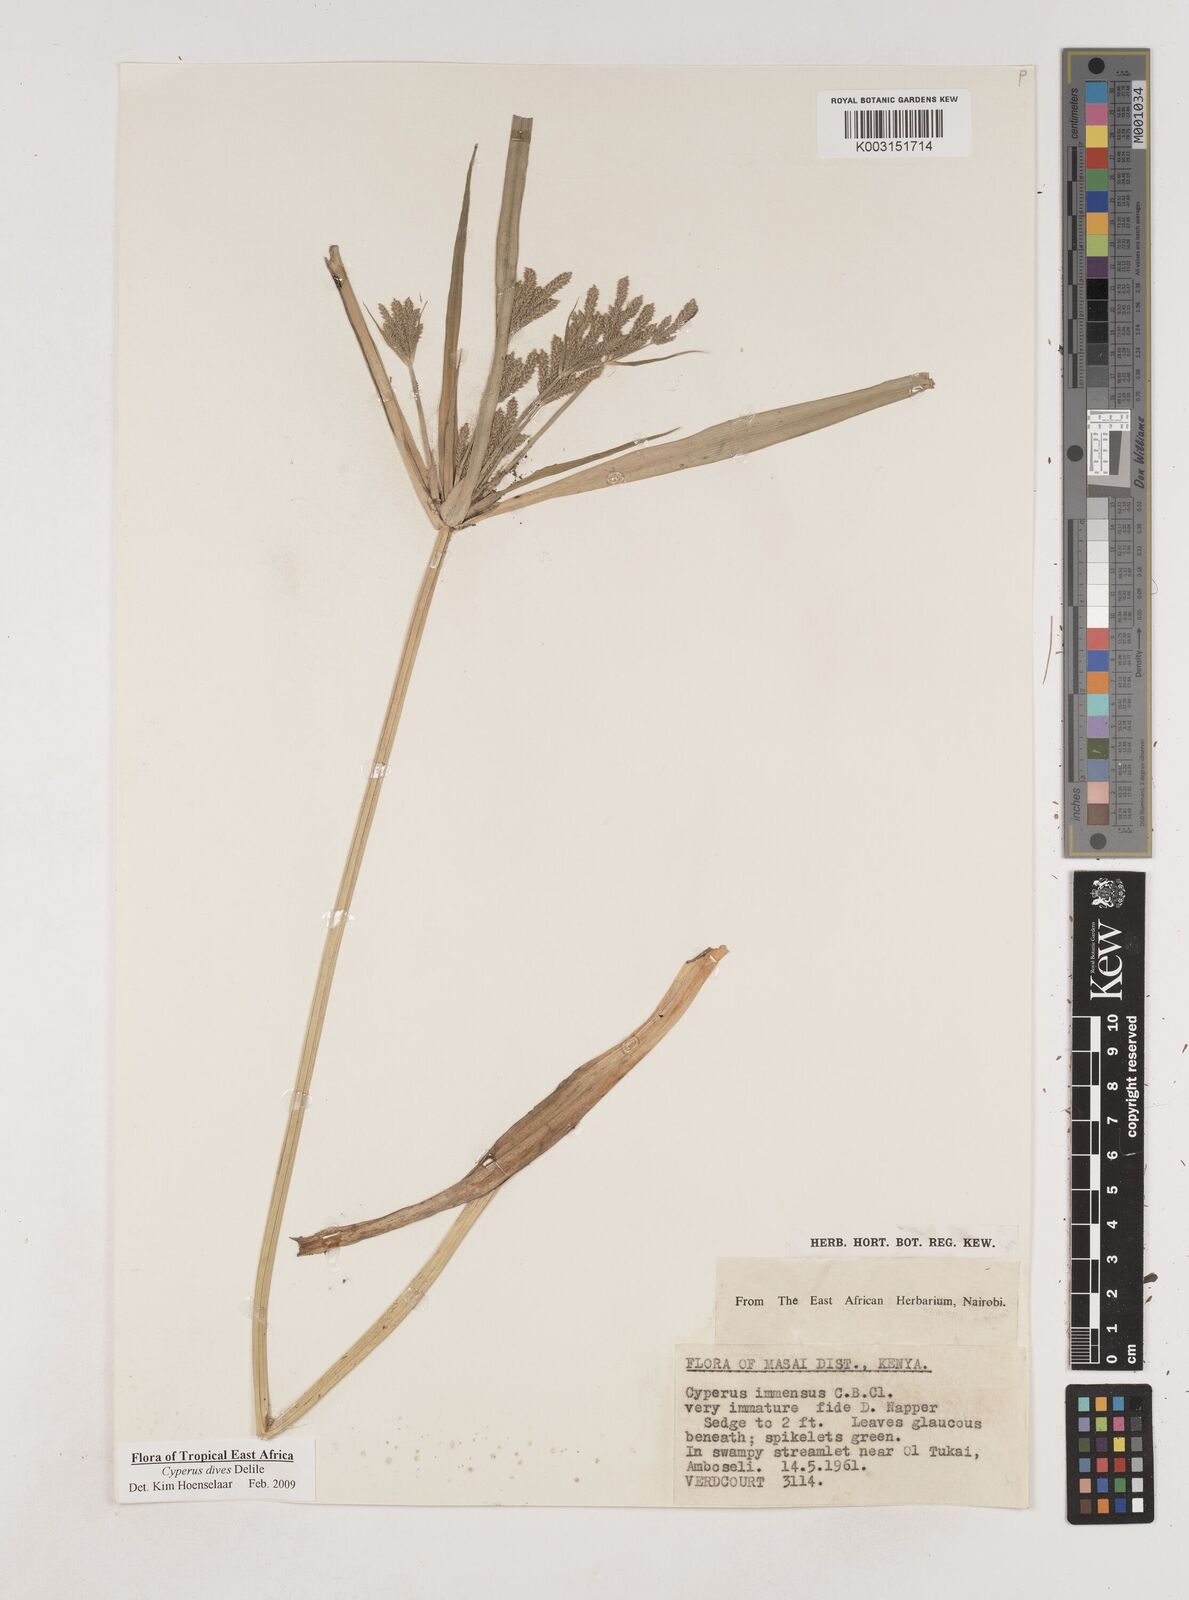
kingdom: Plantae
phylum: Tracheophyta
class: Liliopsida
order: Poales
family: Cyperaceae
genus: Cyperus
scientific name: Cyperus dives
